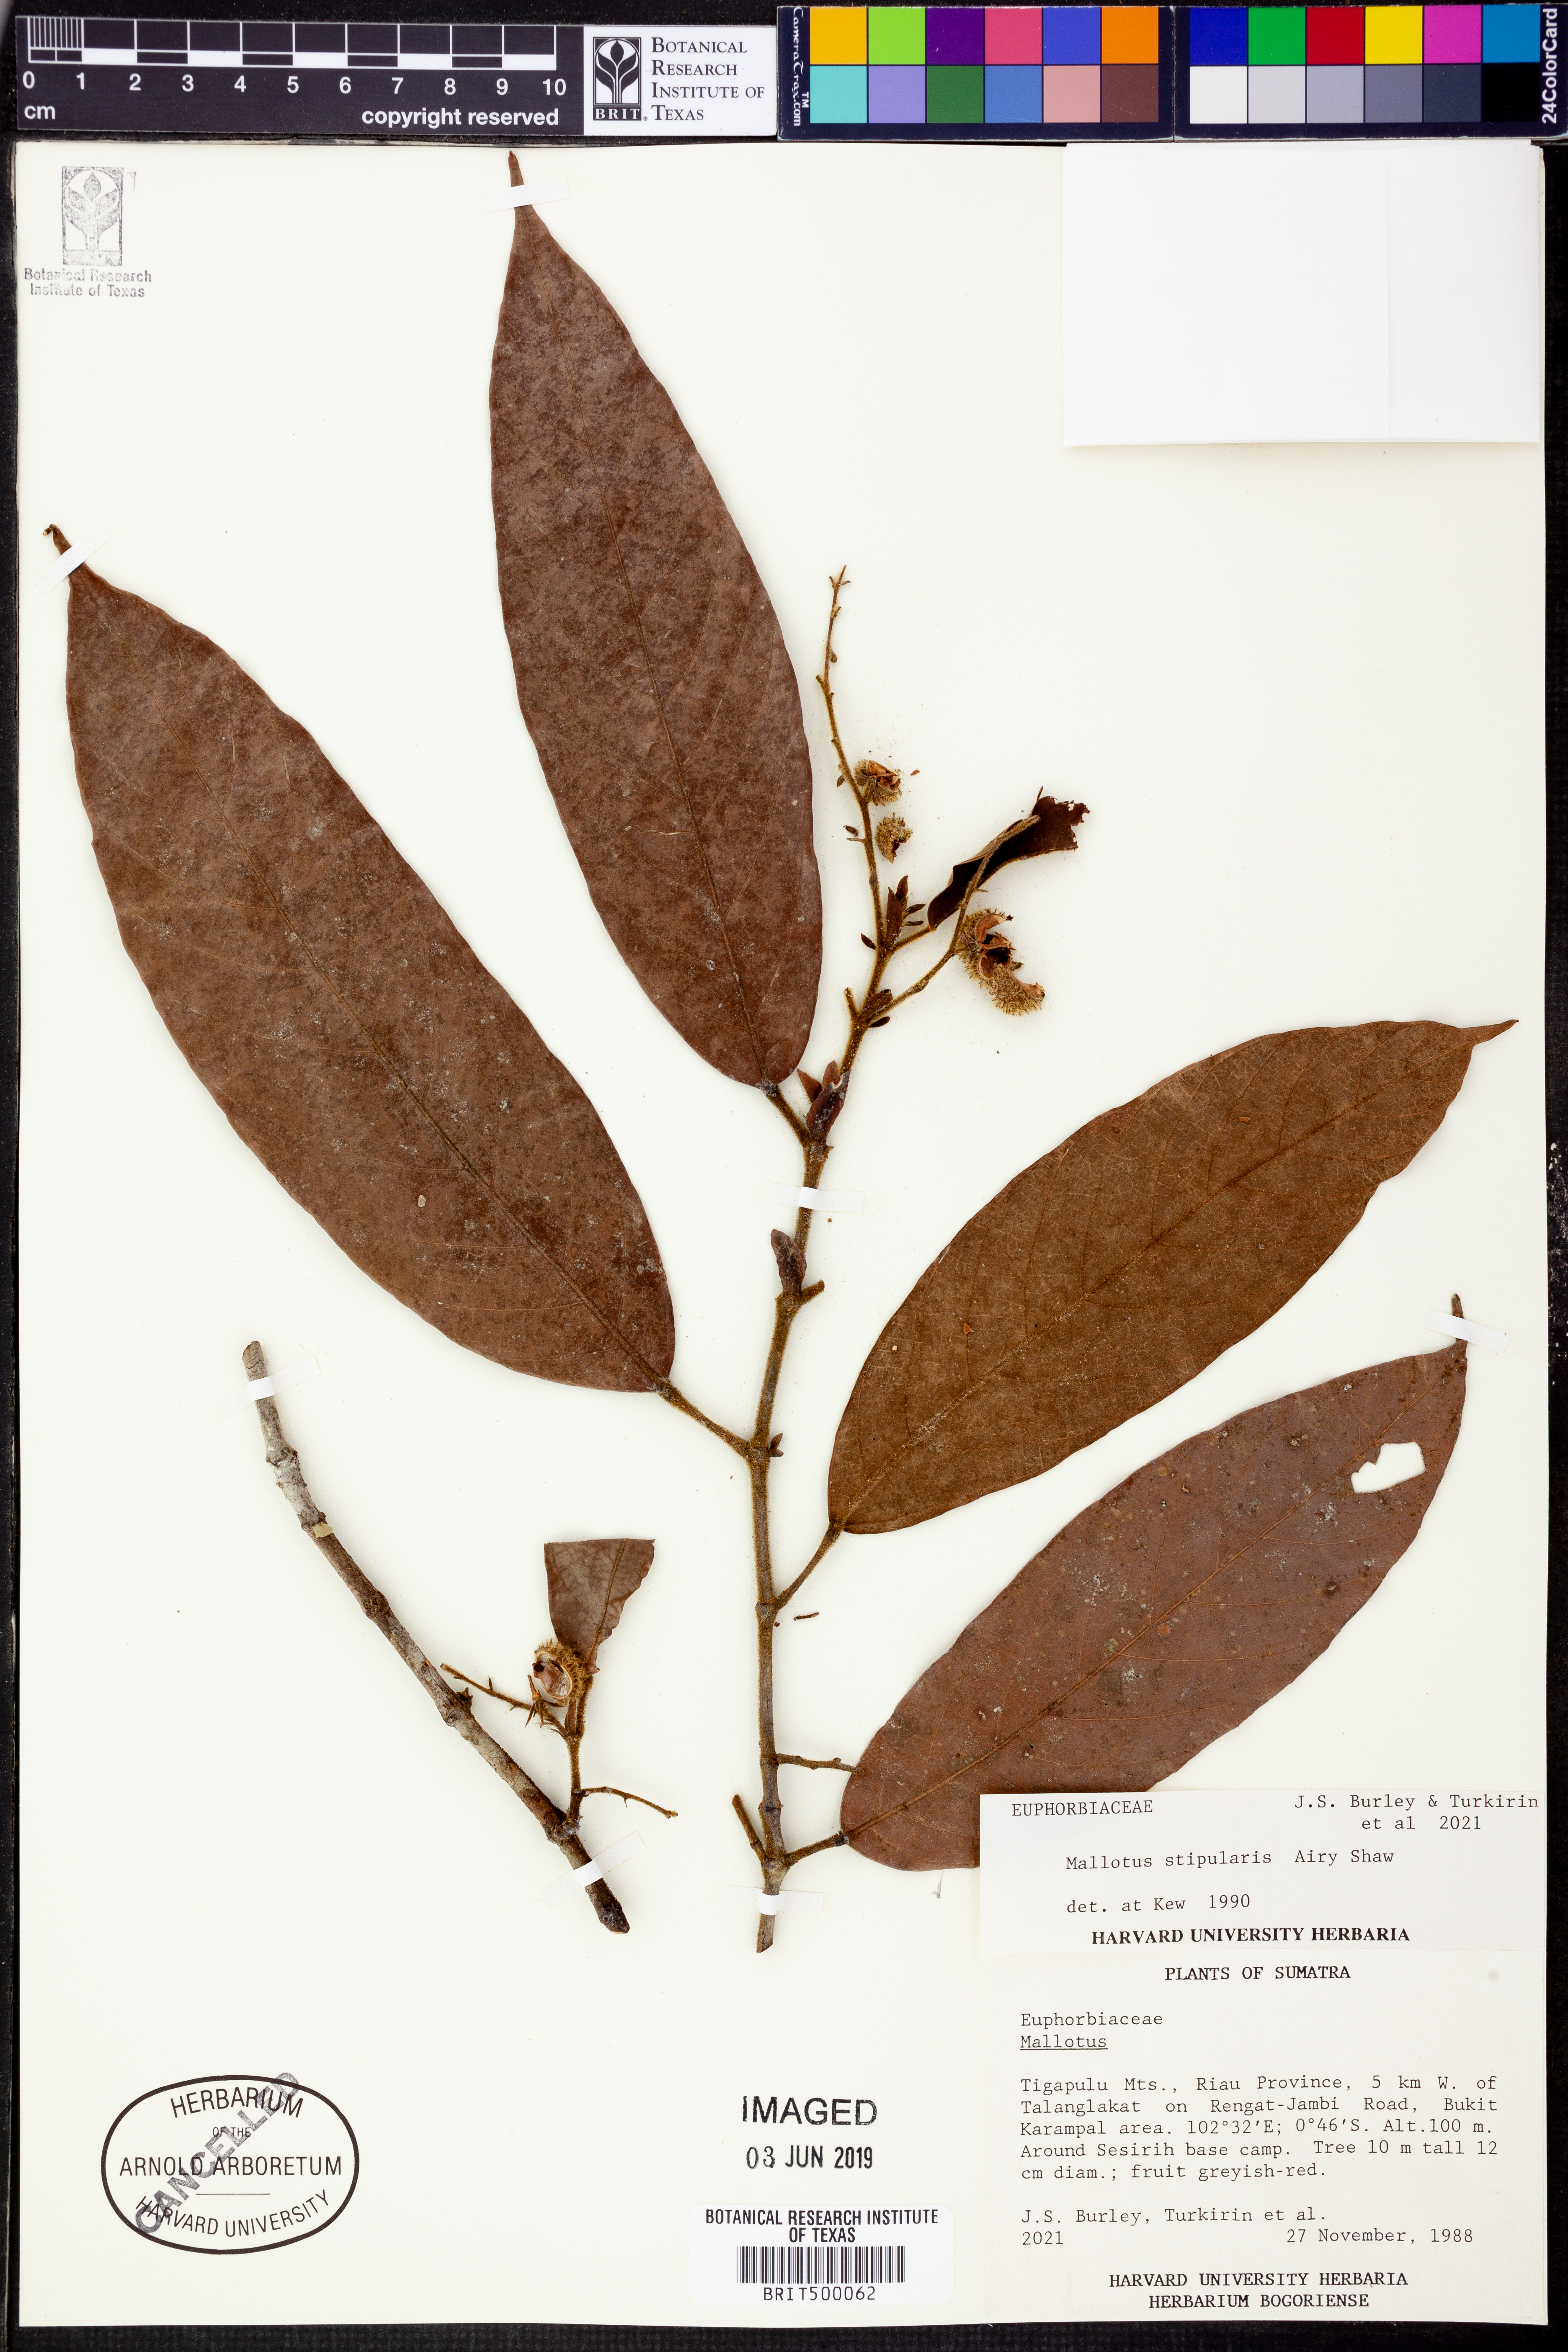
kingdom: Plantae
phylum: Tracheophyta
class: Magnoliopsida
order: Malpighiales
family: Euphorbiaceae
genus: Hancea
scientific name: Hancea stipularis
